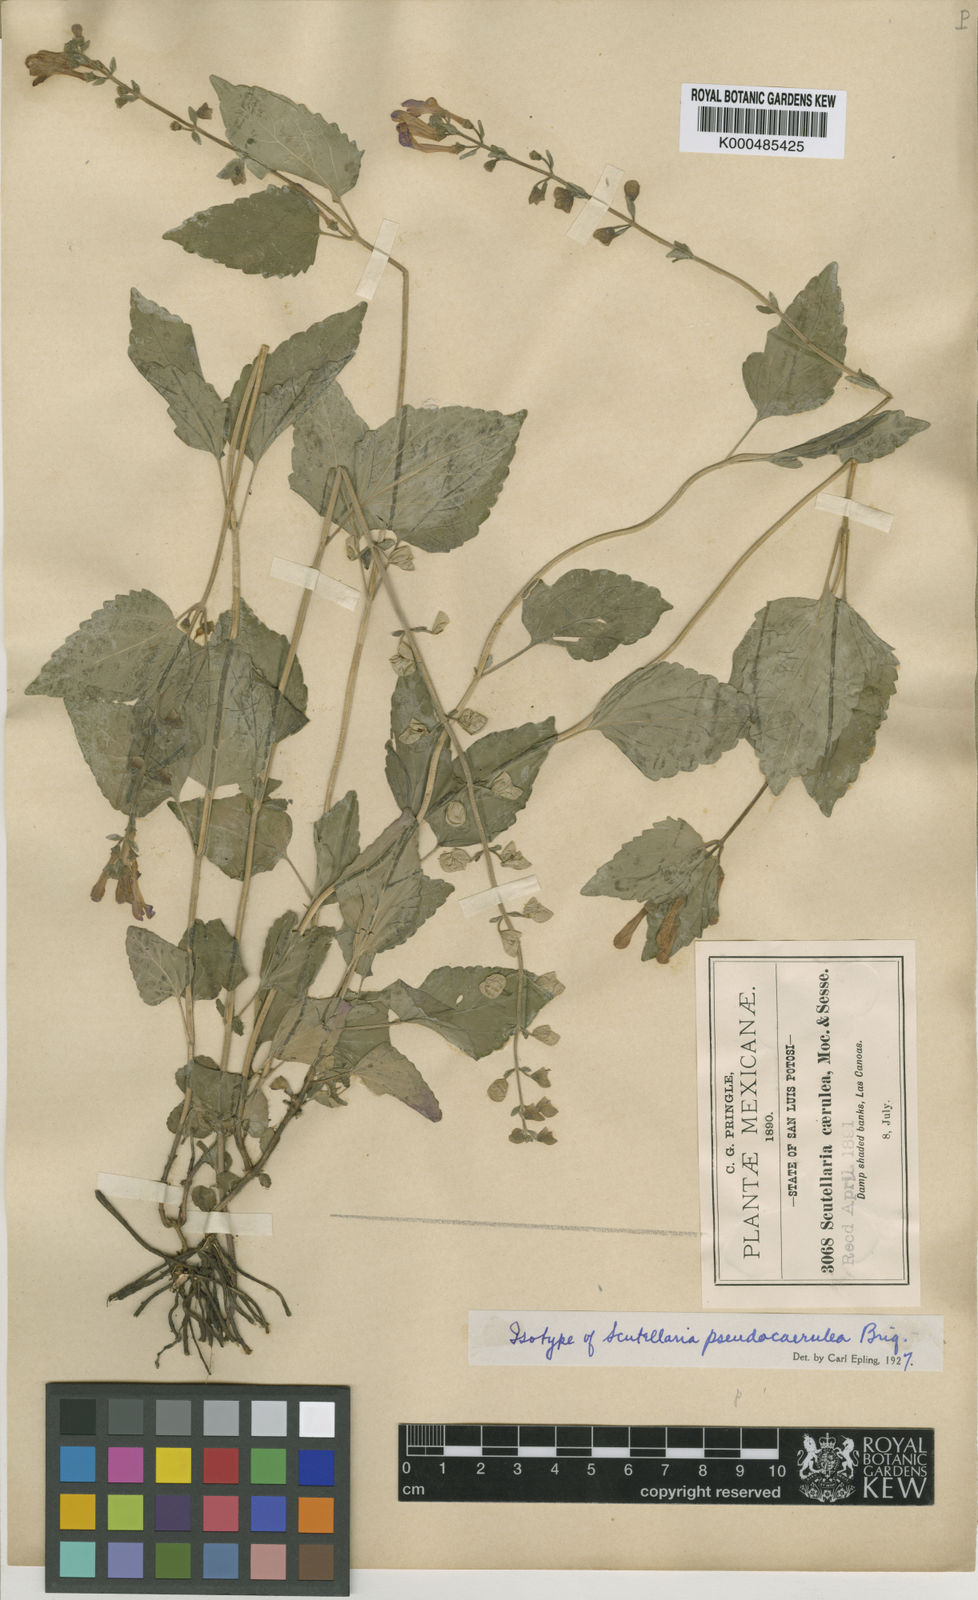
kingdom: Plantae
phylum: Tracheophyta
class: Magnoliopsida
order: Lamiales
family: Lamiaceae
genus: Scutellaria
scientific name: Scutellaria pseudocoerulea
